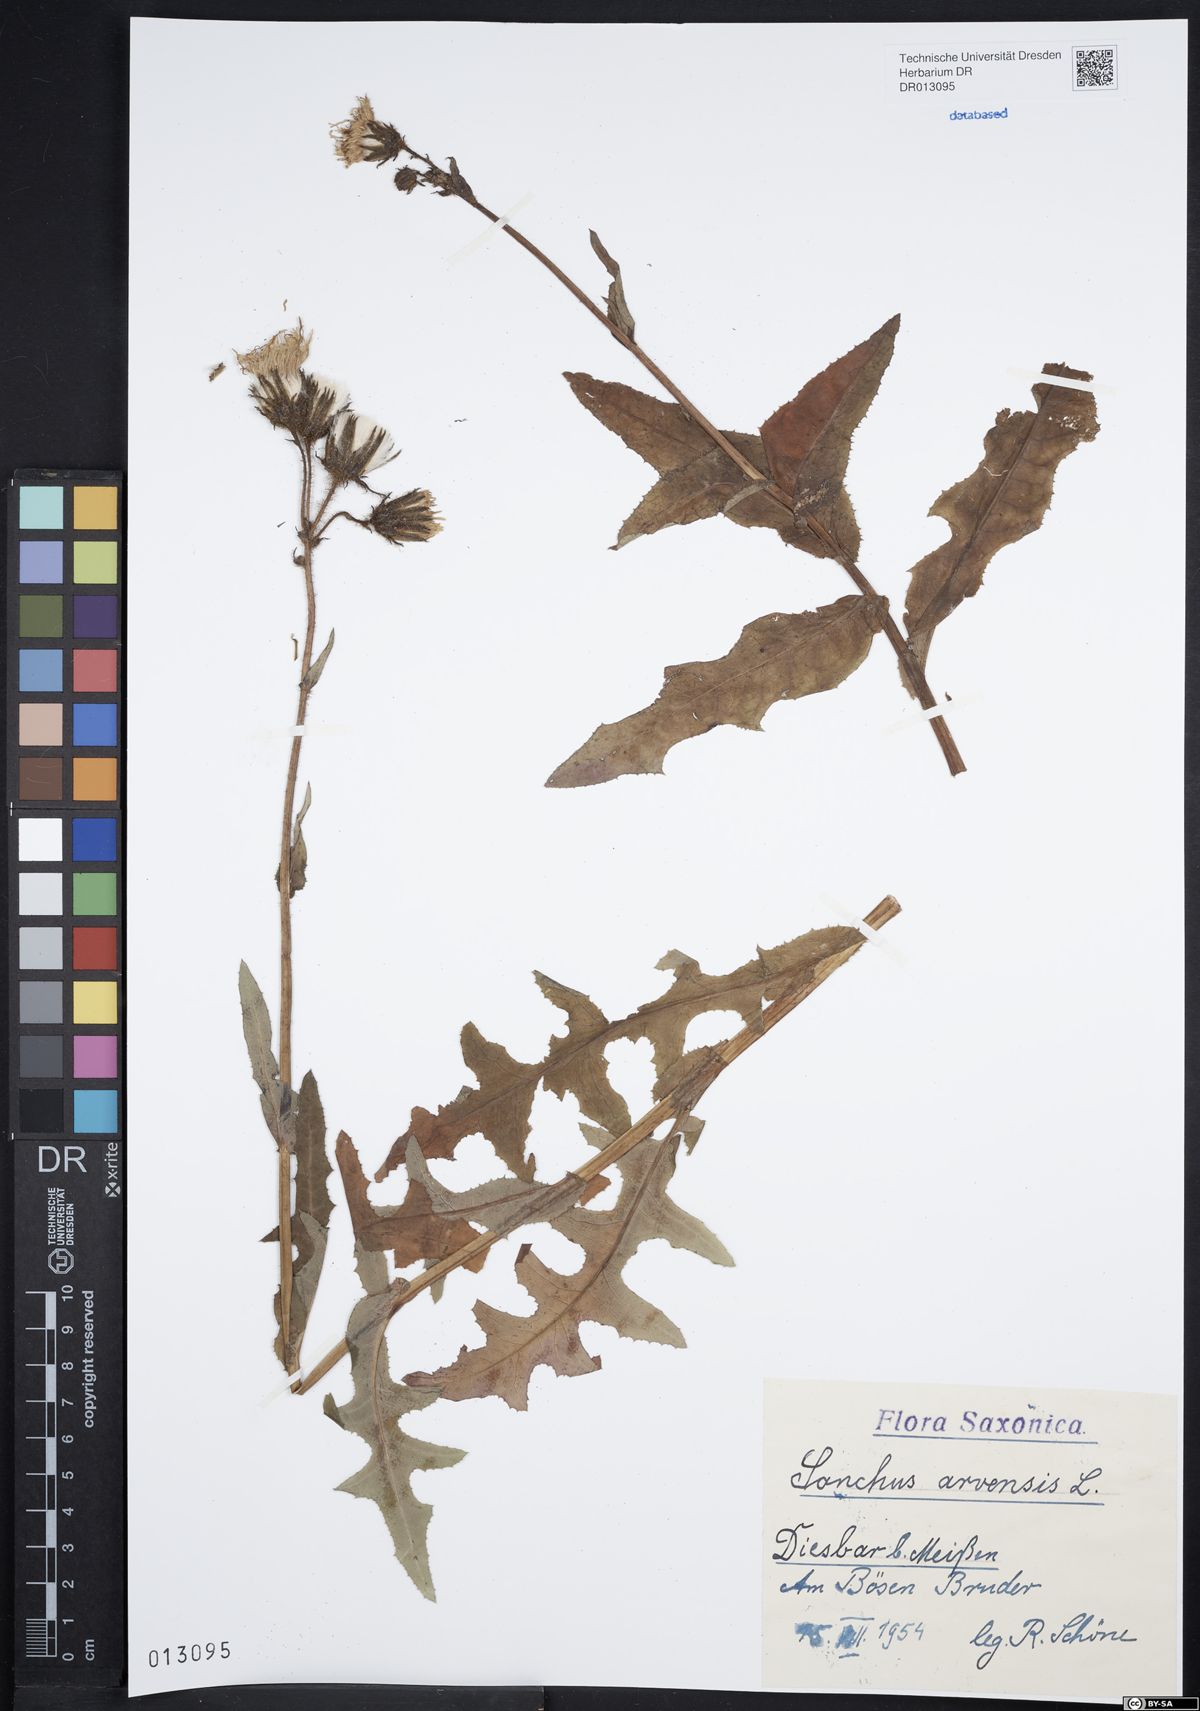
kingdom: Plantae
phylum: Tracheophyta
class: Magnoliopsida
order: Asterales
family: Asteraceae
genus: Sonchus
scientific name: Sonchus arvensis
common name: Perennial sow-thistle
